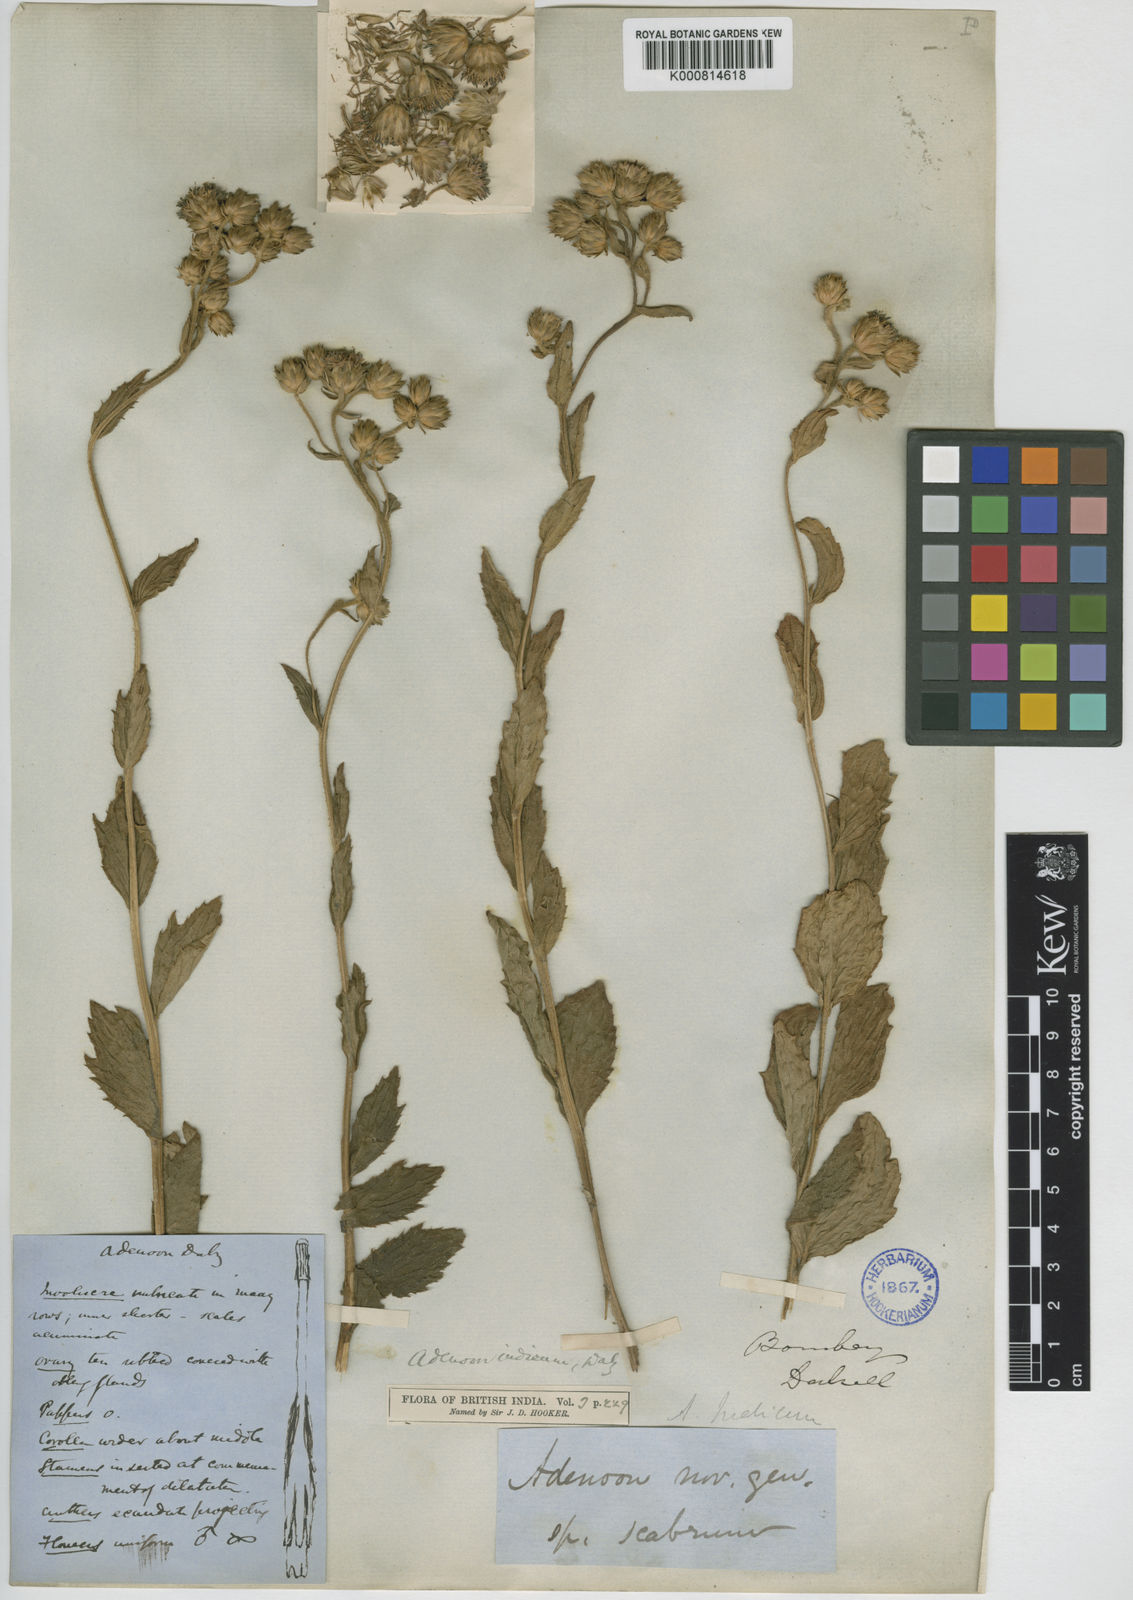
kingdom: Plantae
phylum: Tracheophyta
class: Magnoliopsida
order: Asterales
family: Asteraceae
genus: Adenoon
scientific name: Adenoon indicum
